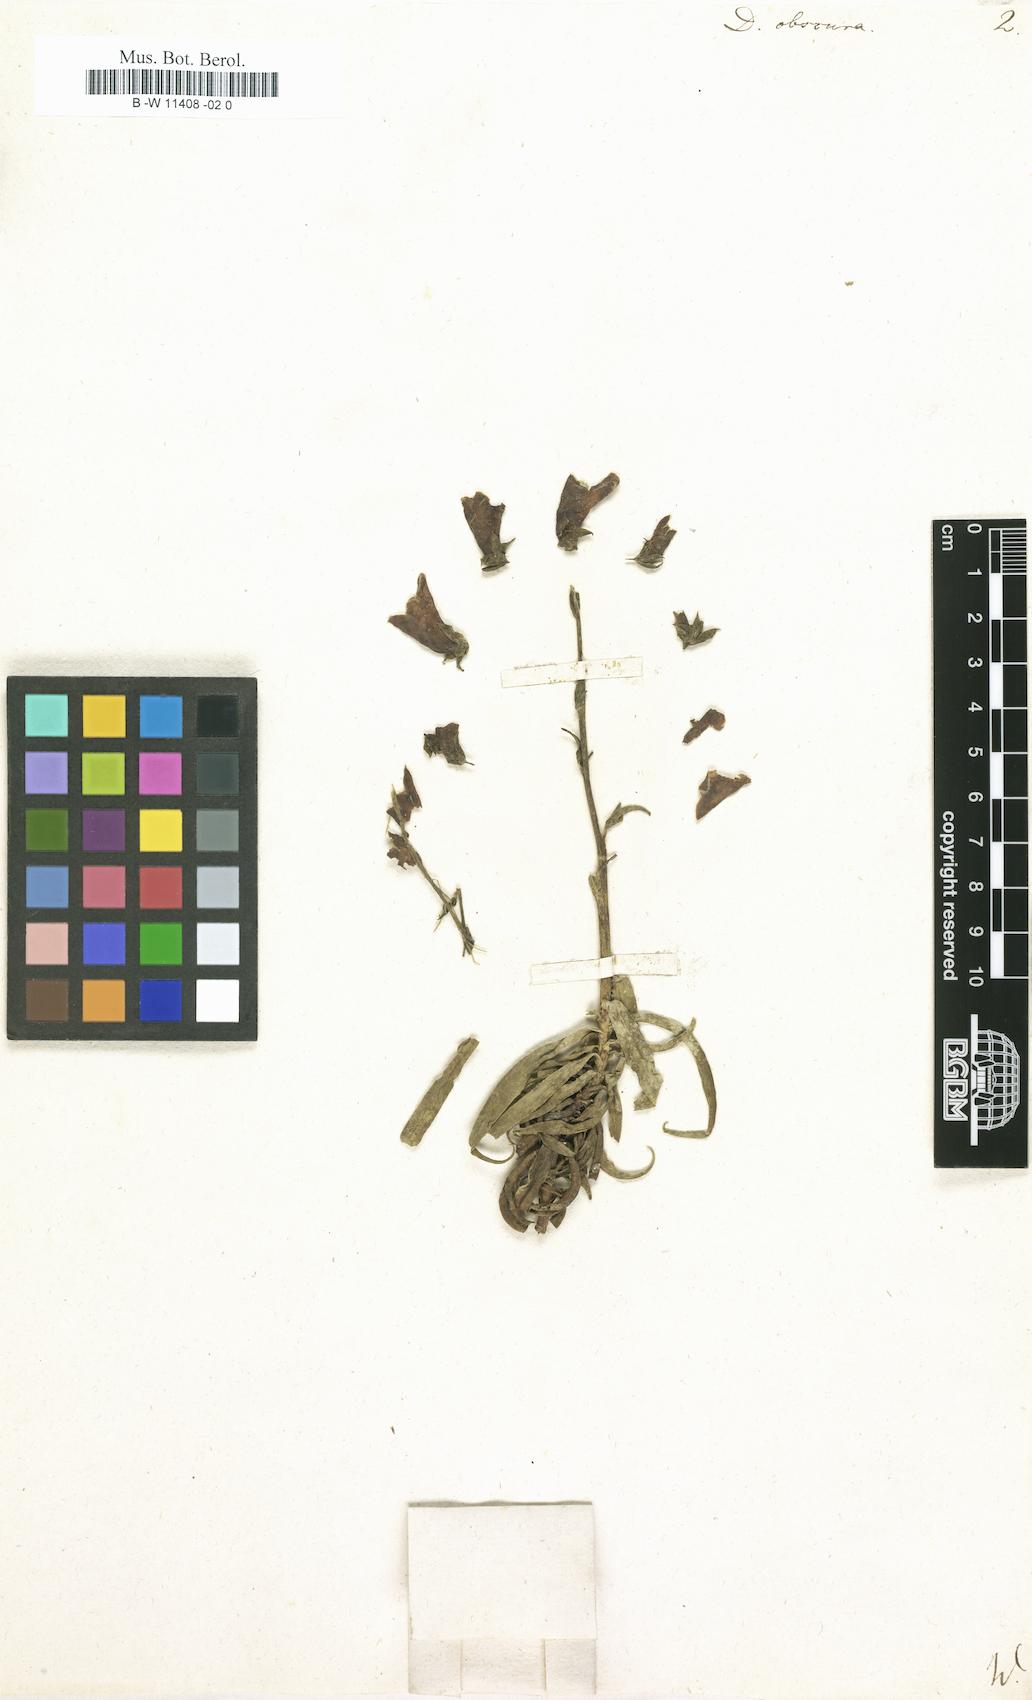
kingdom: Plantae
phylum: Tracheophyta
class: Magnoliopsida
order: Lamiales
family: Plantaginaceae
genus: Digitalis
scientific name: Digitalis obscura
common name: Willow-leaf foxglove
